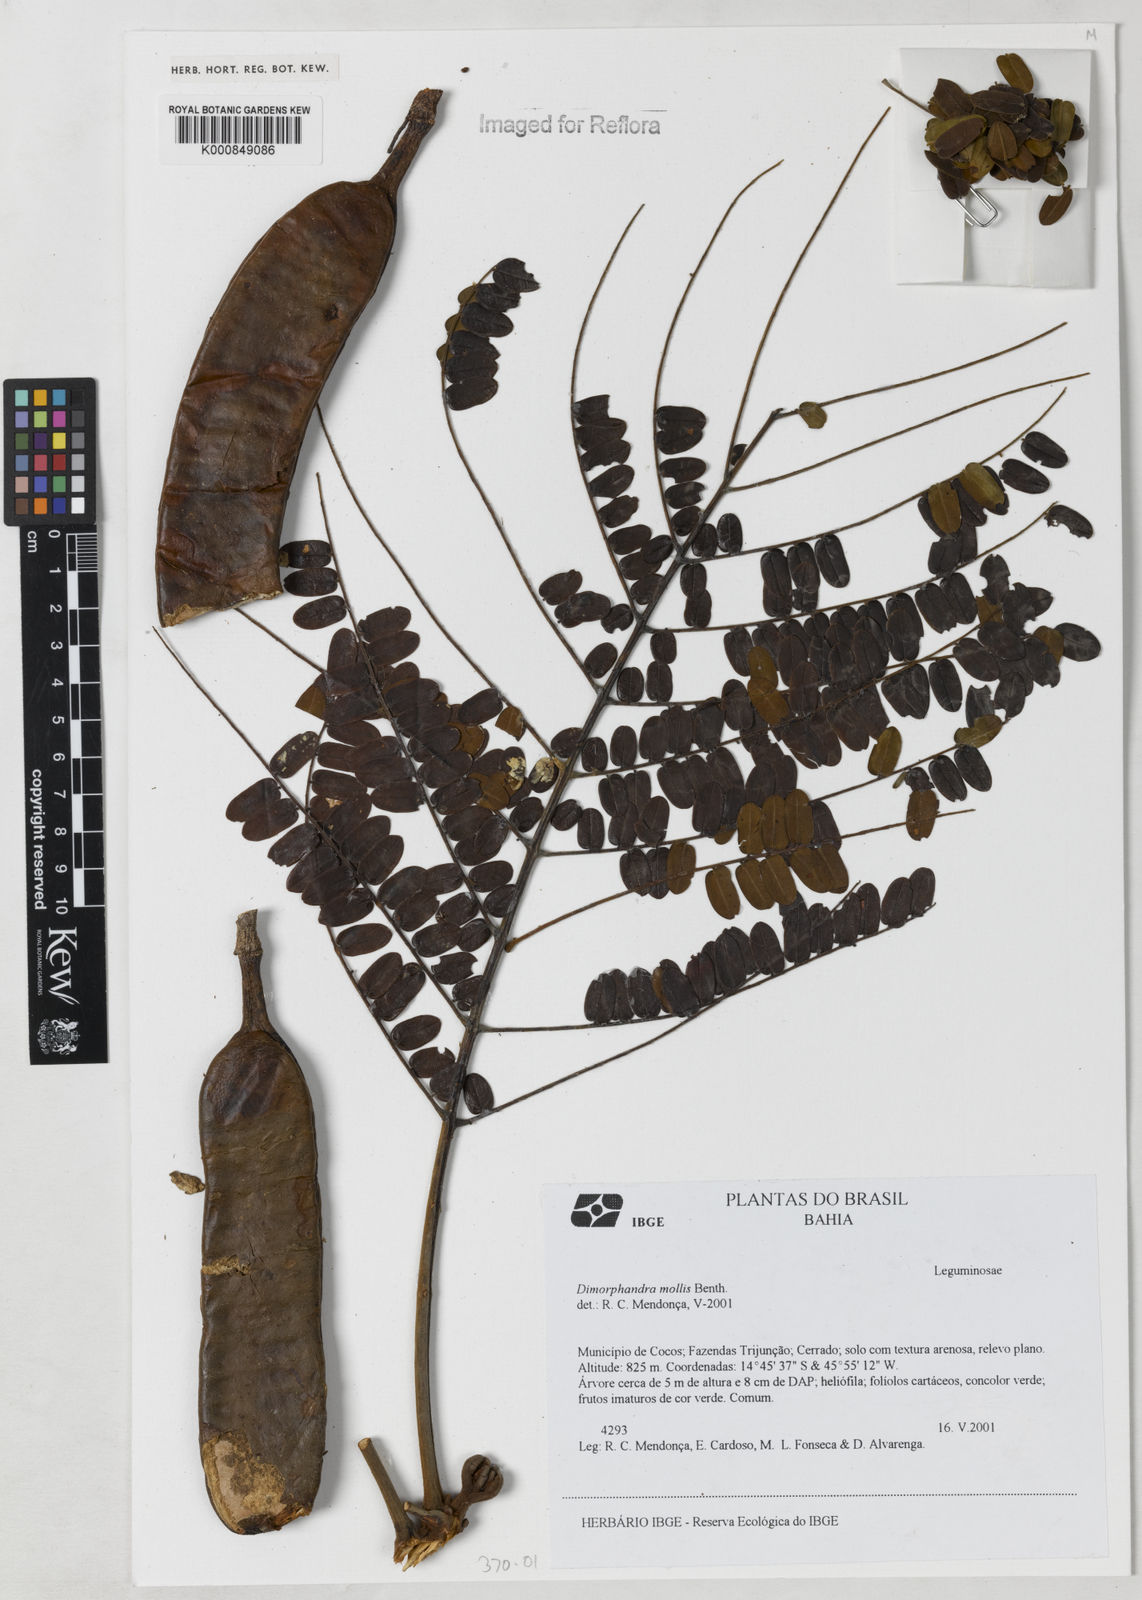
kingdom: Plantae
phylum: Tracheophyta
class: Magnoliopsida
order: Fabales
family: Fabaceae
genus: Dimorphandra
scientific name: Dimorphandra mollis
